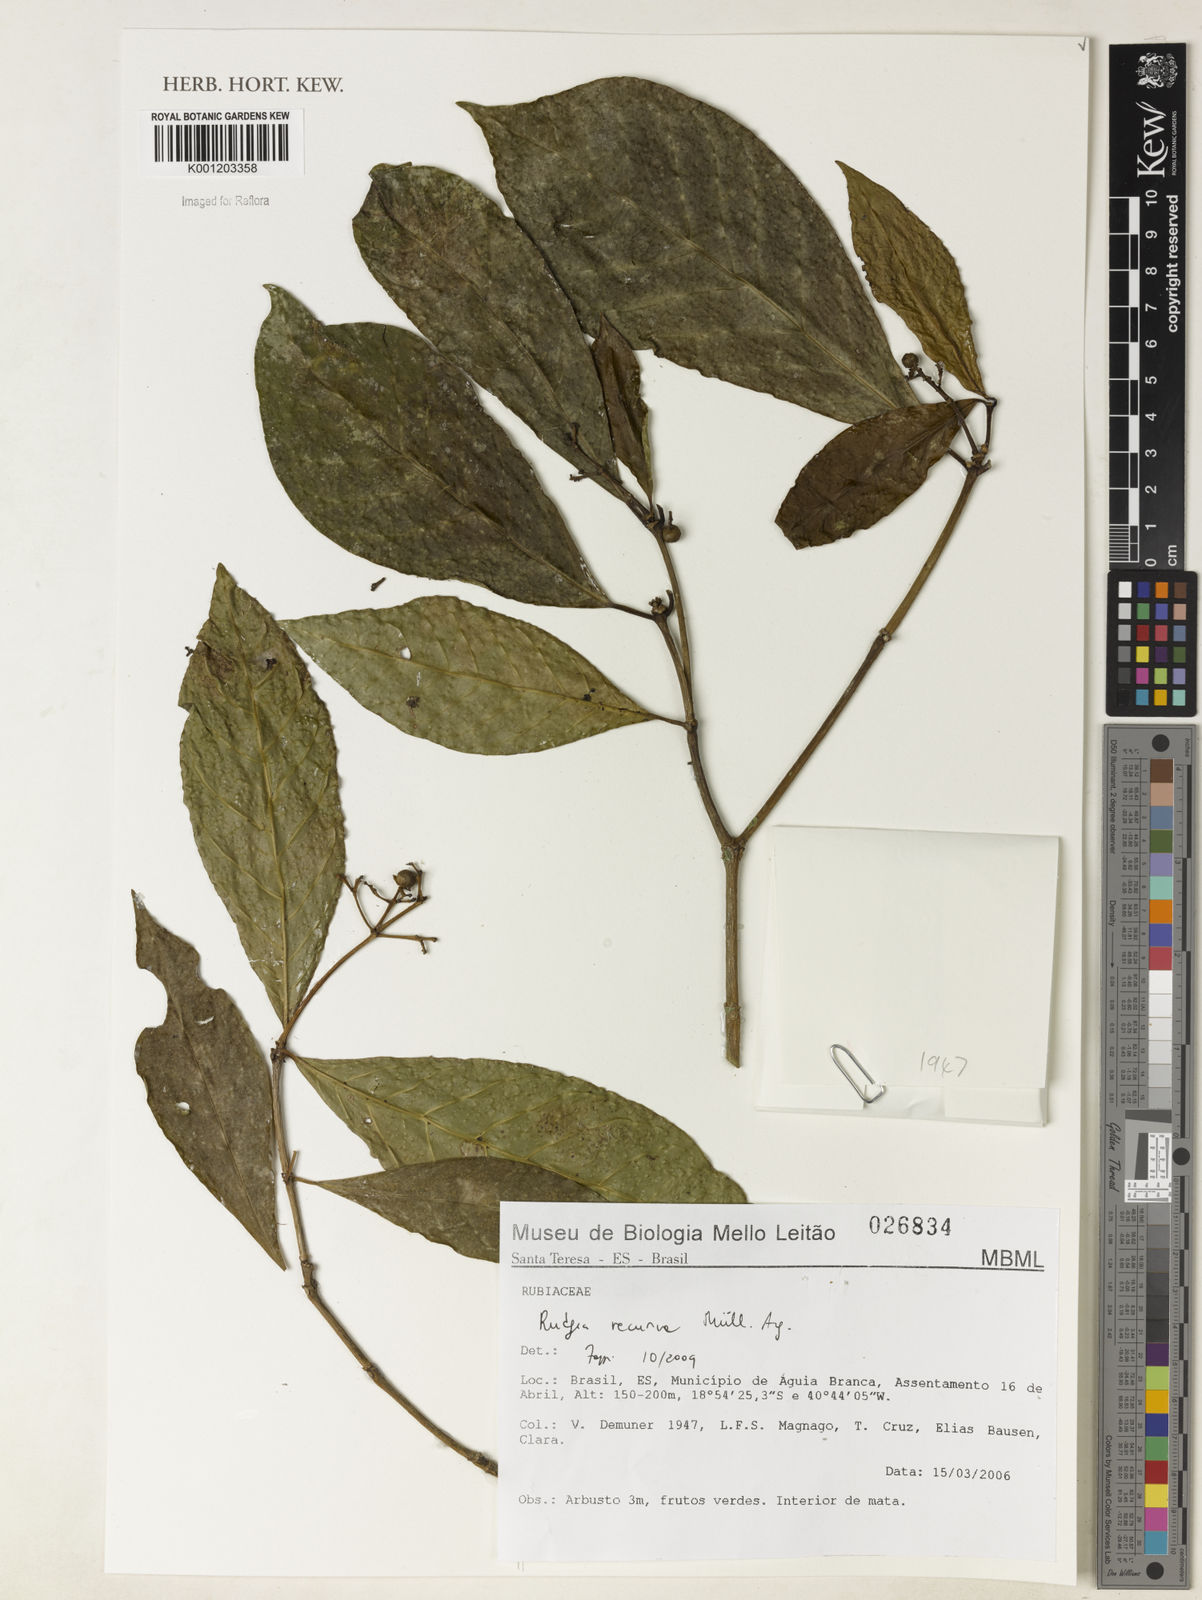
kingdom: Plantae
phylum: Tracheophyta
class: Magnoliopsida
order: Gentianales
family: Rubiaceae
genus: Rudgea
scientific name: Rudgea
